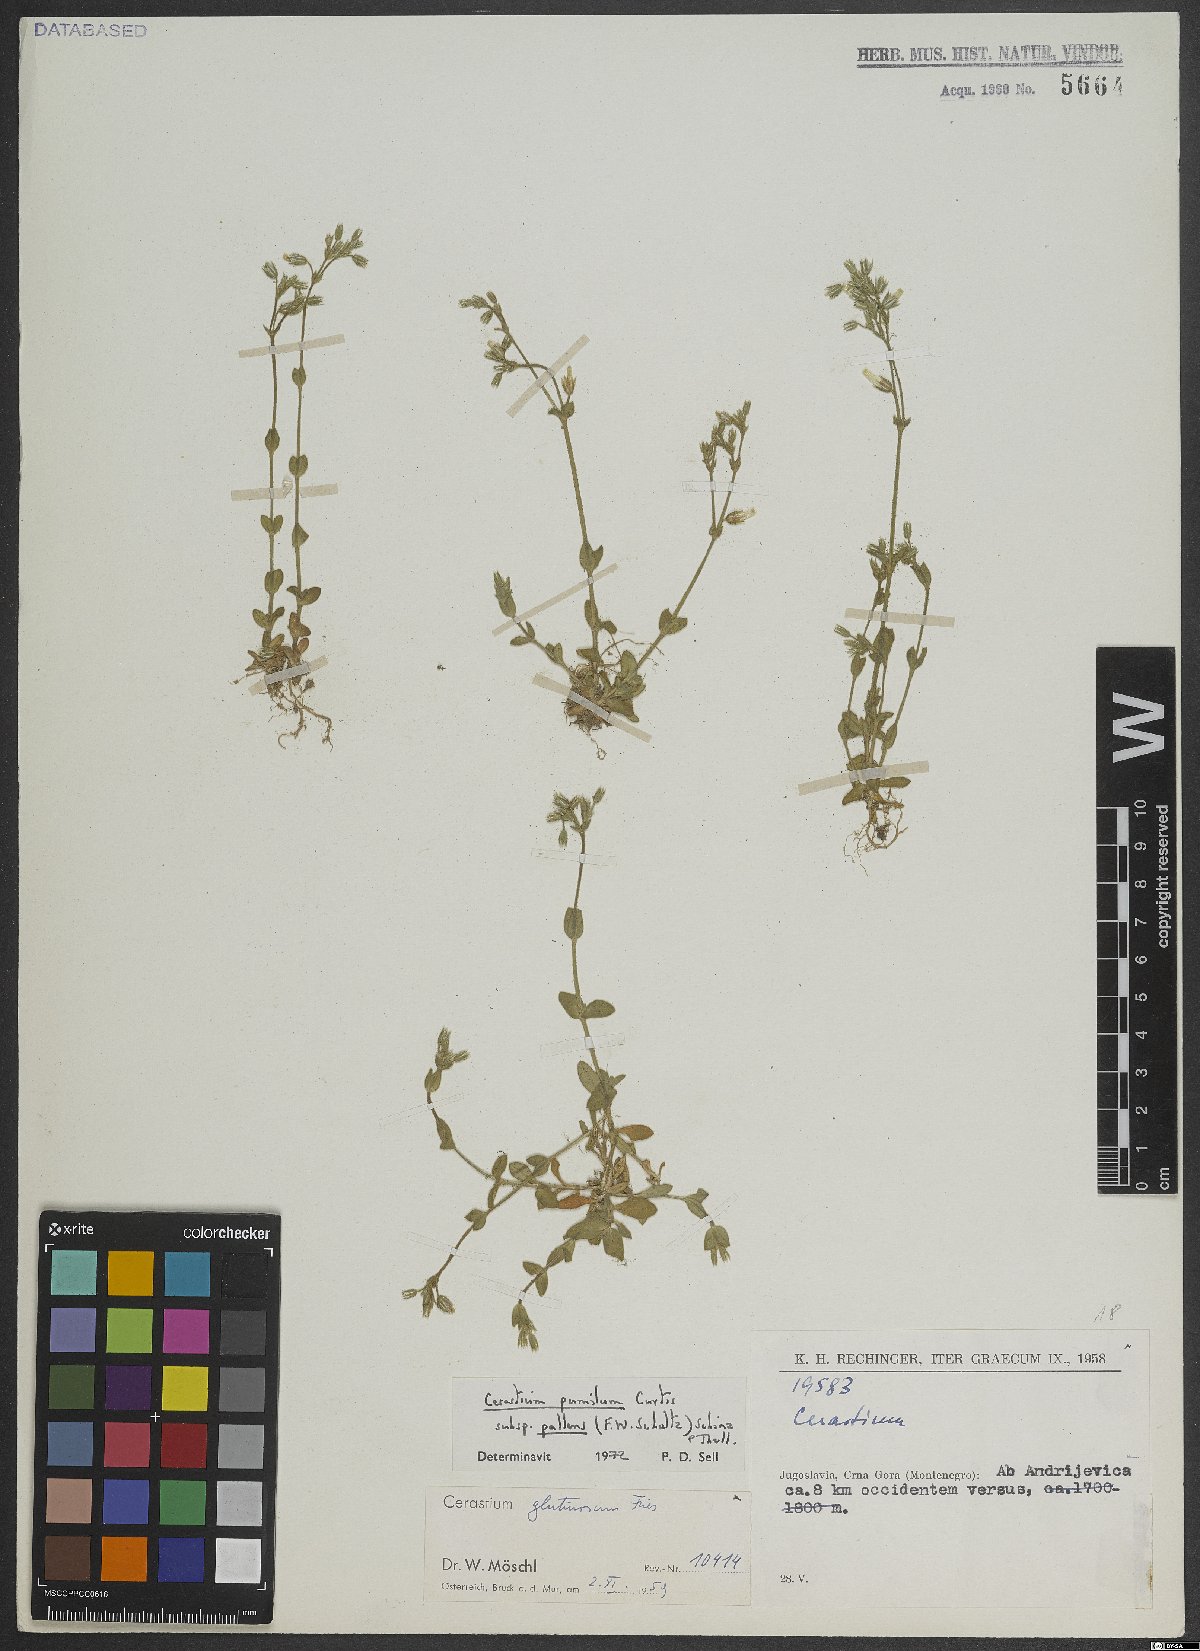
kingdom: Plantae
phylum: Tracheophyta
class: Magnoliopsida
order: Caryophyllales
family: Caryophyllaceae
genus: Cerastium
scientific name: Cerastium glutinosum
